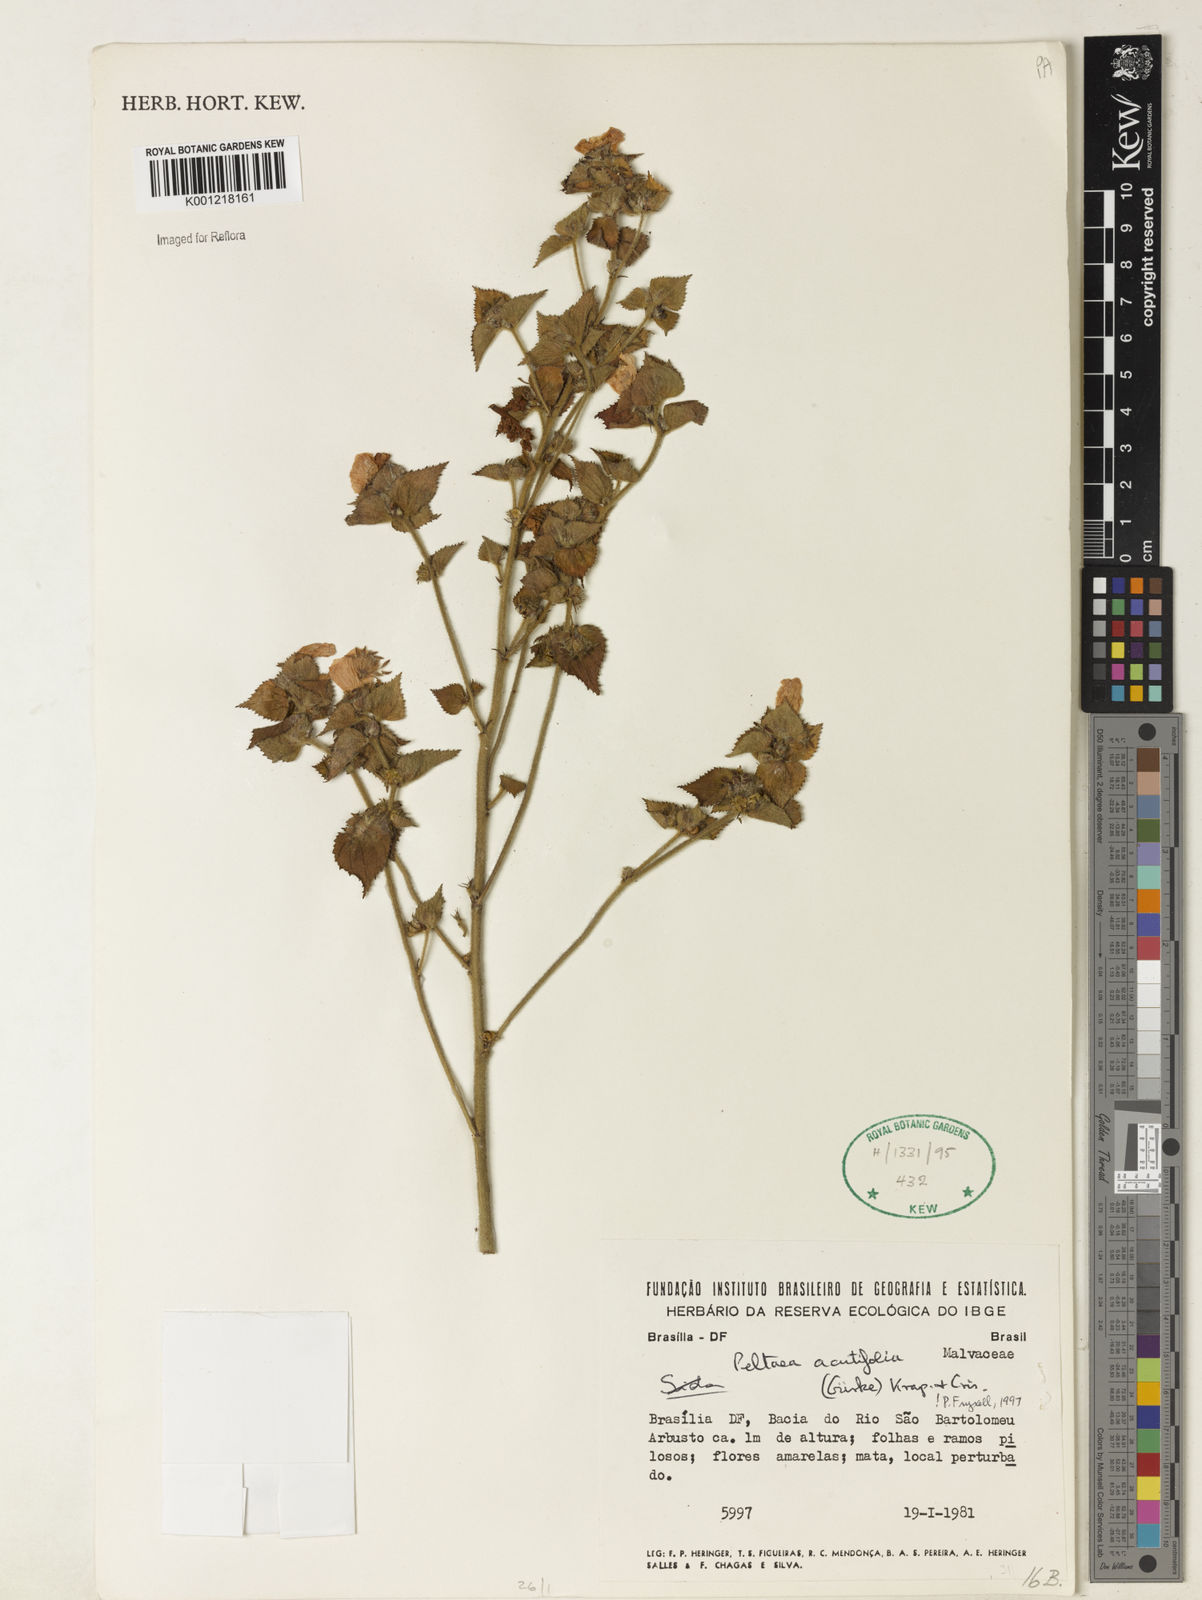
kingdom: Plantae
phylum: Tracheophyta
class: Magnoliopsida
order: Malvales
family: Malvaceae
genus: Peltaea
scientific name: Peltaea
